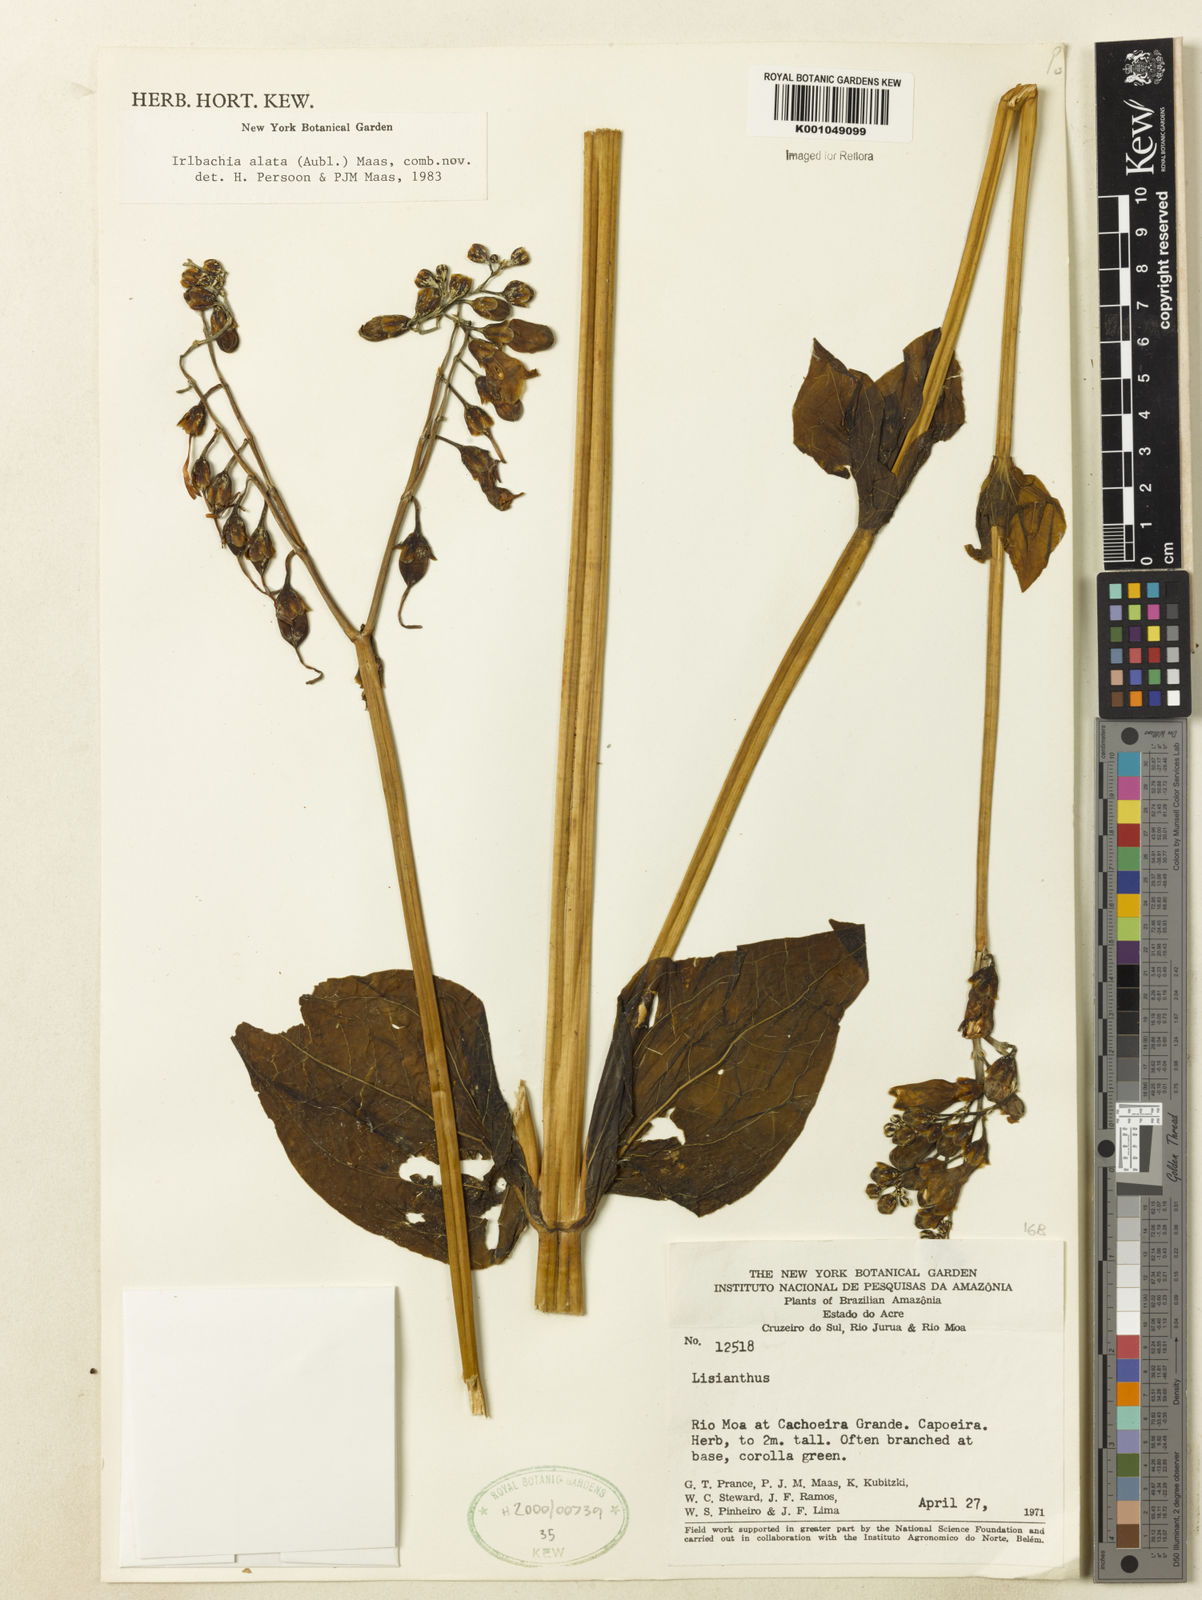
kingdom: Plantae
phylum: Tracheophyta
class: Magnoliopsida
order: Gentianales
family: Gentianaceae
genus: Chelonanthus
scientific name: Chelonanthus alatus
